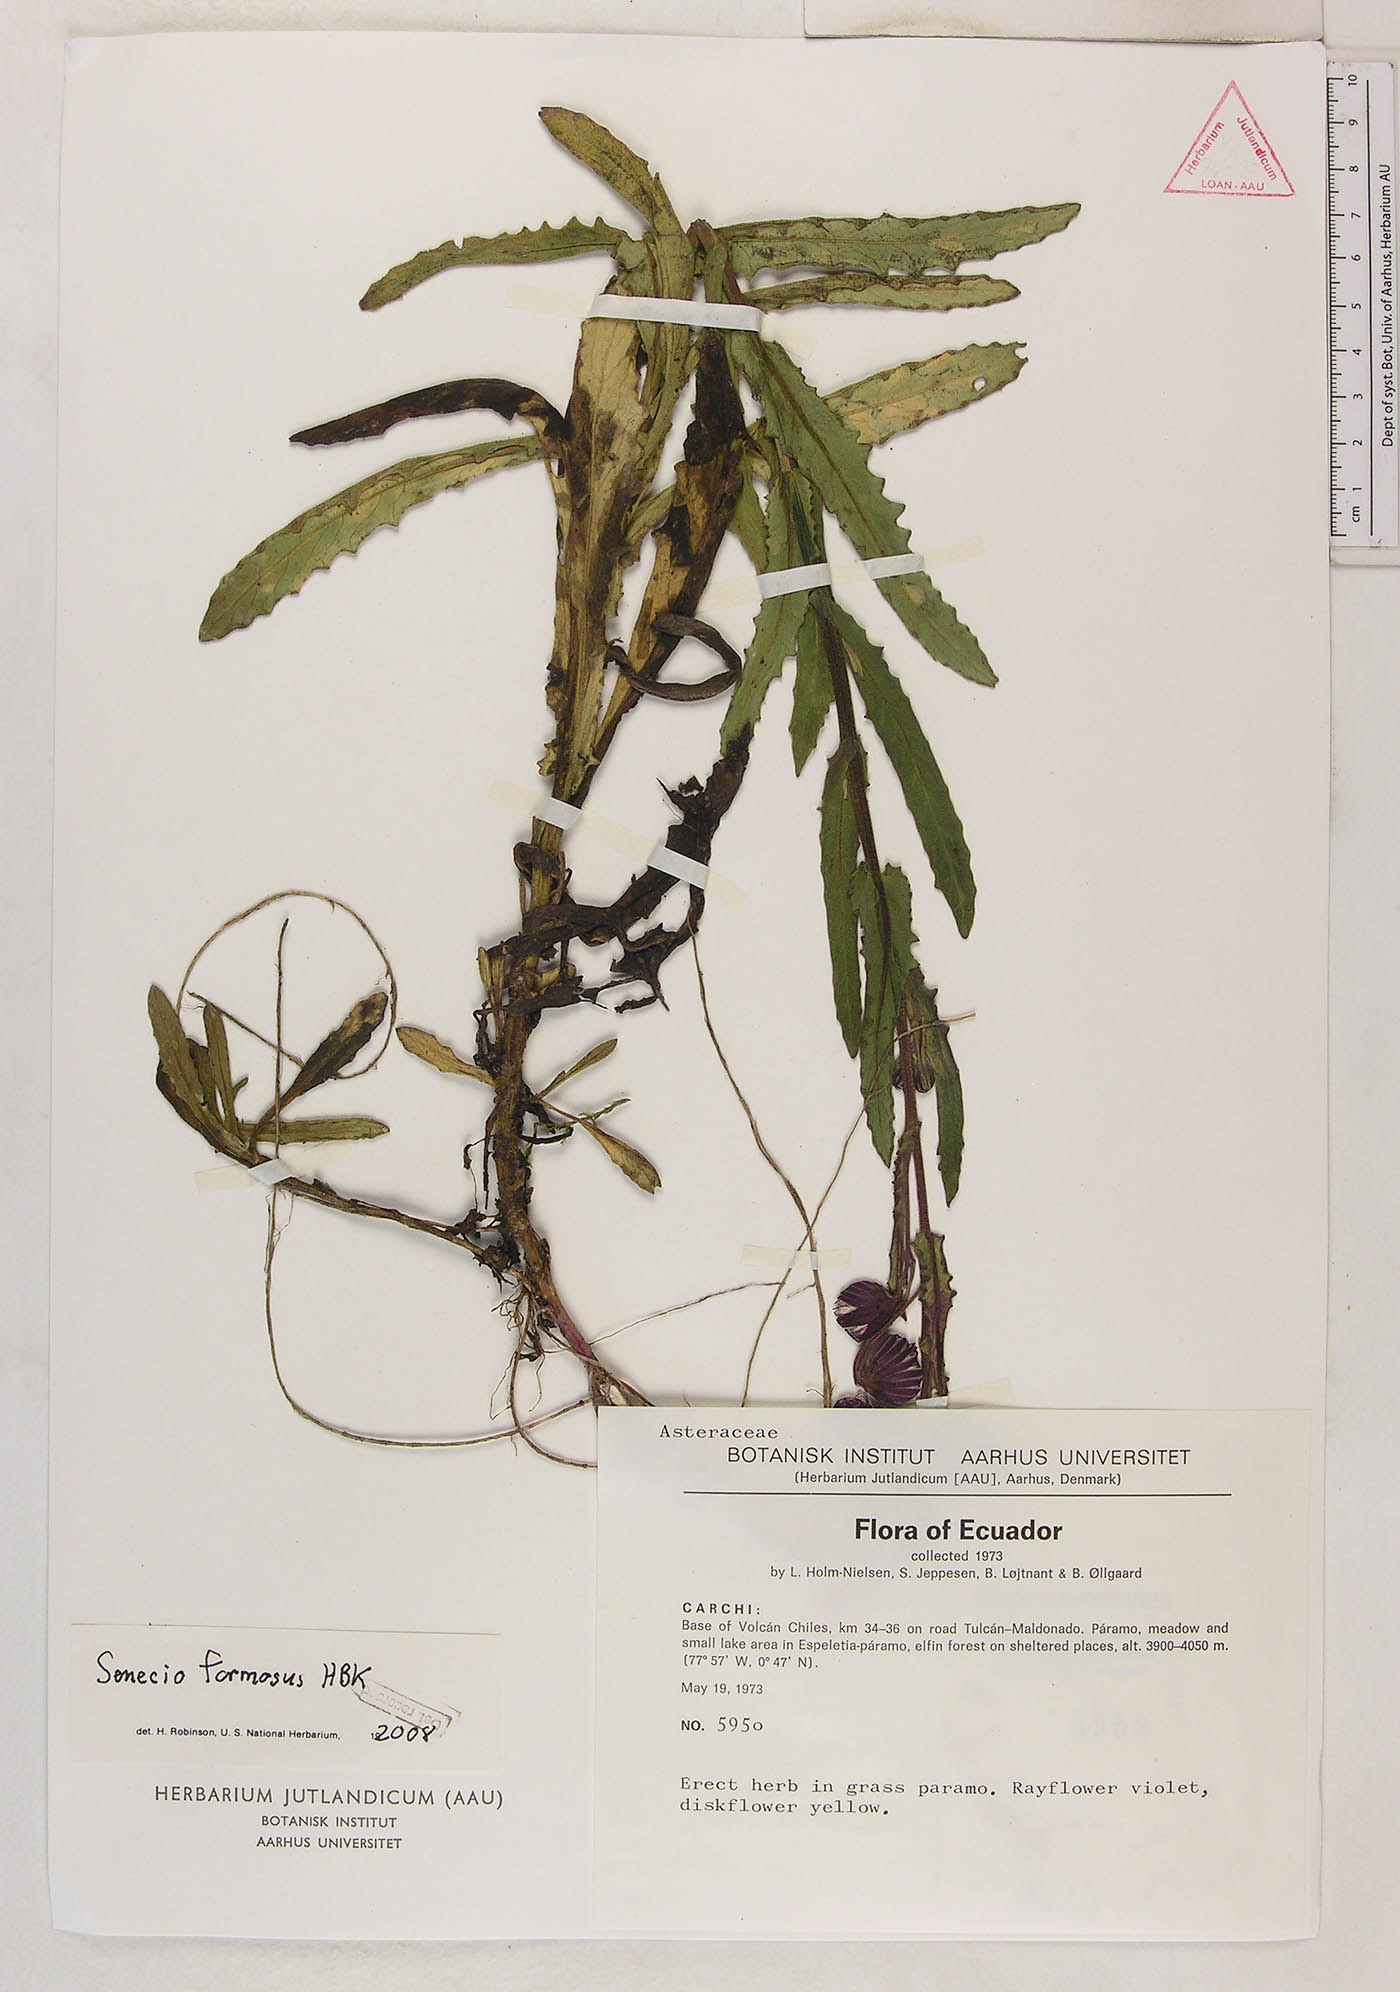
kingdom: Plantae
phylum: Tracheophyta
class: Magnoliopsida
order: Asterales
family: Asteraceae
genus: Senecio
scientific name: Senecio formosus
